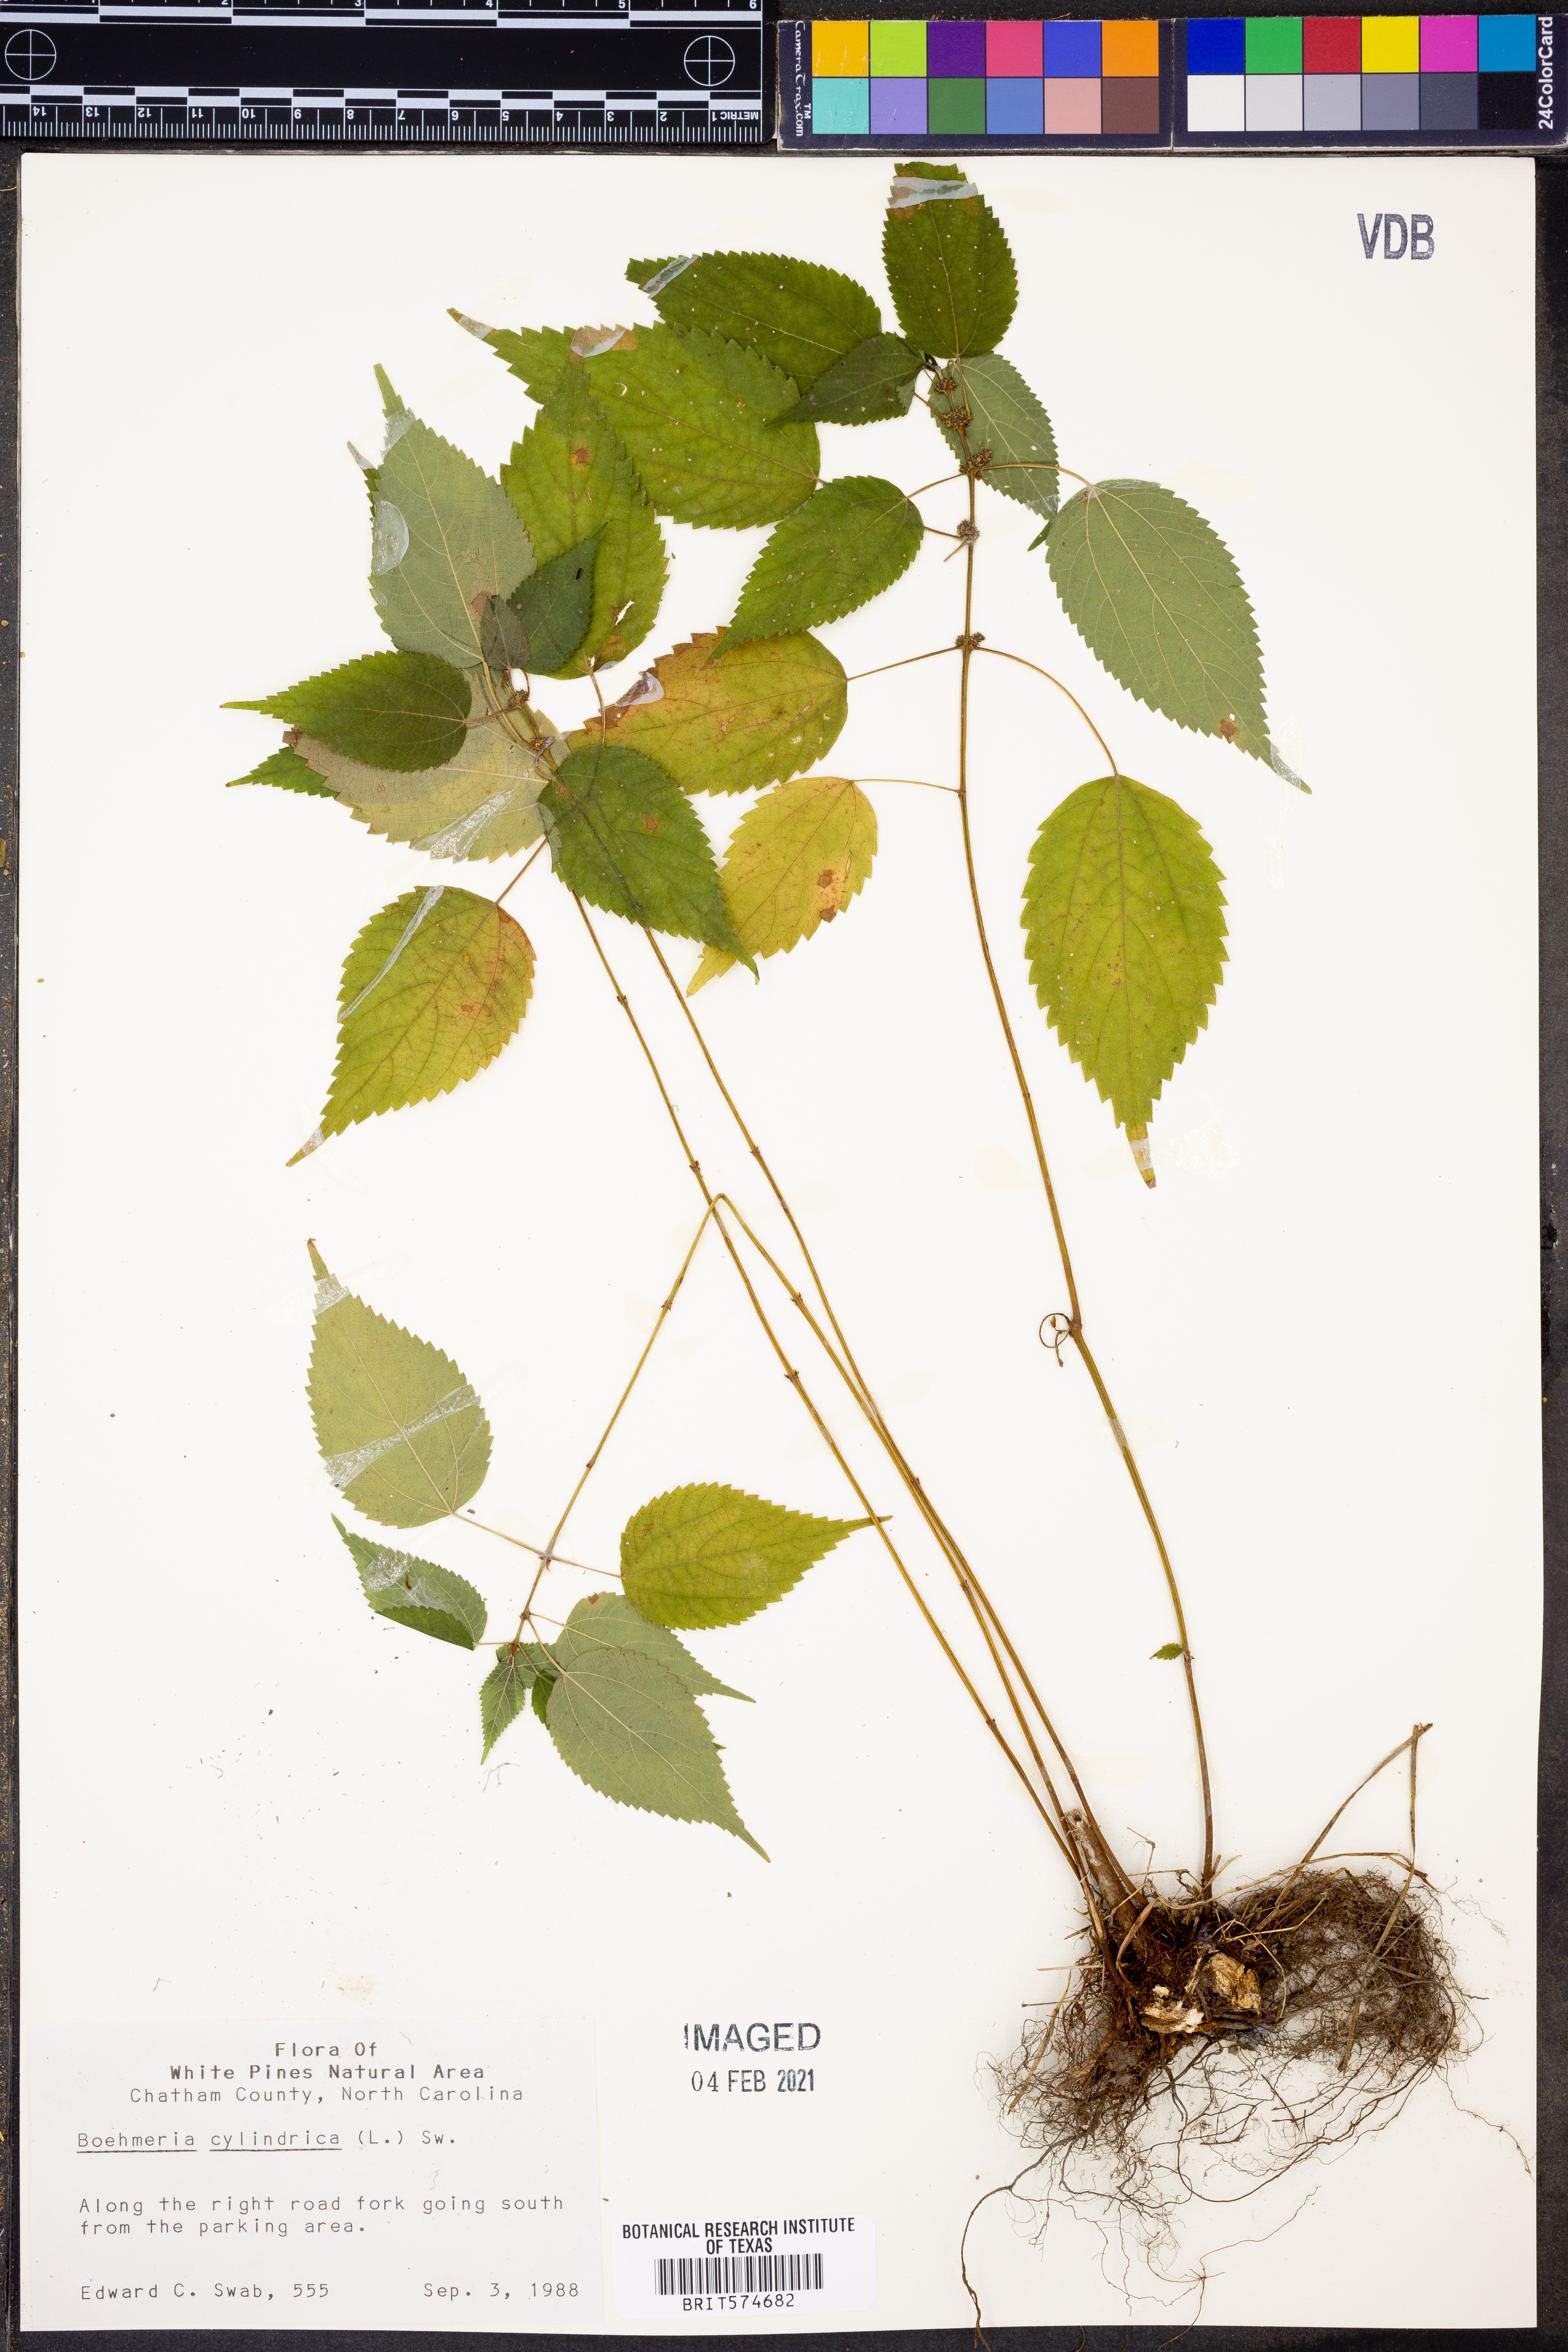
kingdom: Plantae
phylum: Tracheophyta
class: Magnoliopsida
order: Rosales
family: Urticaceae
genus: Boehmeria
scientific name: Boehmeria cylindrica
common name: Bog-hemp
